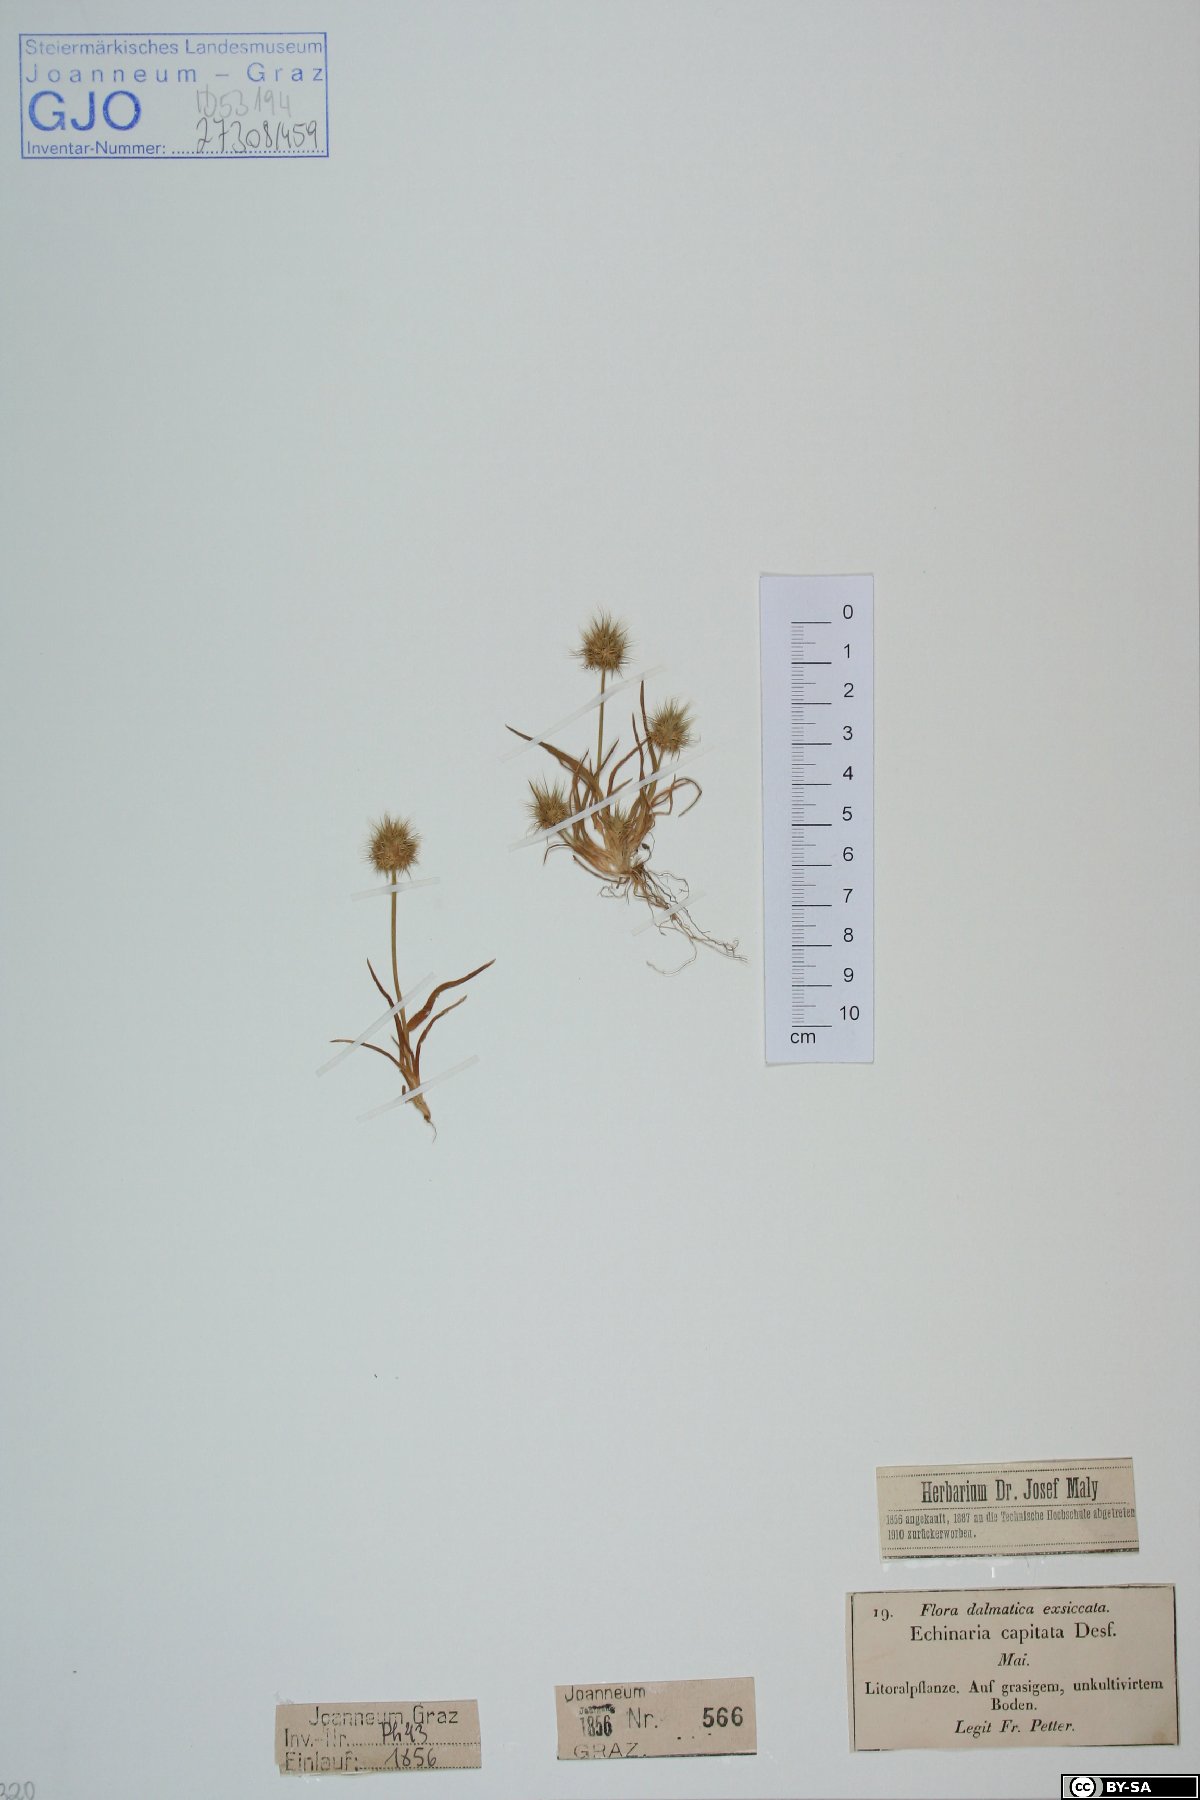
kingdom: Plantae
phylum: Tracheophyta
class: Liliopsida
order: Poales
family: Poaceae
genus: Echinaria
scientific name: Echinaria capitata
